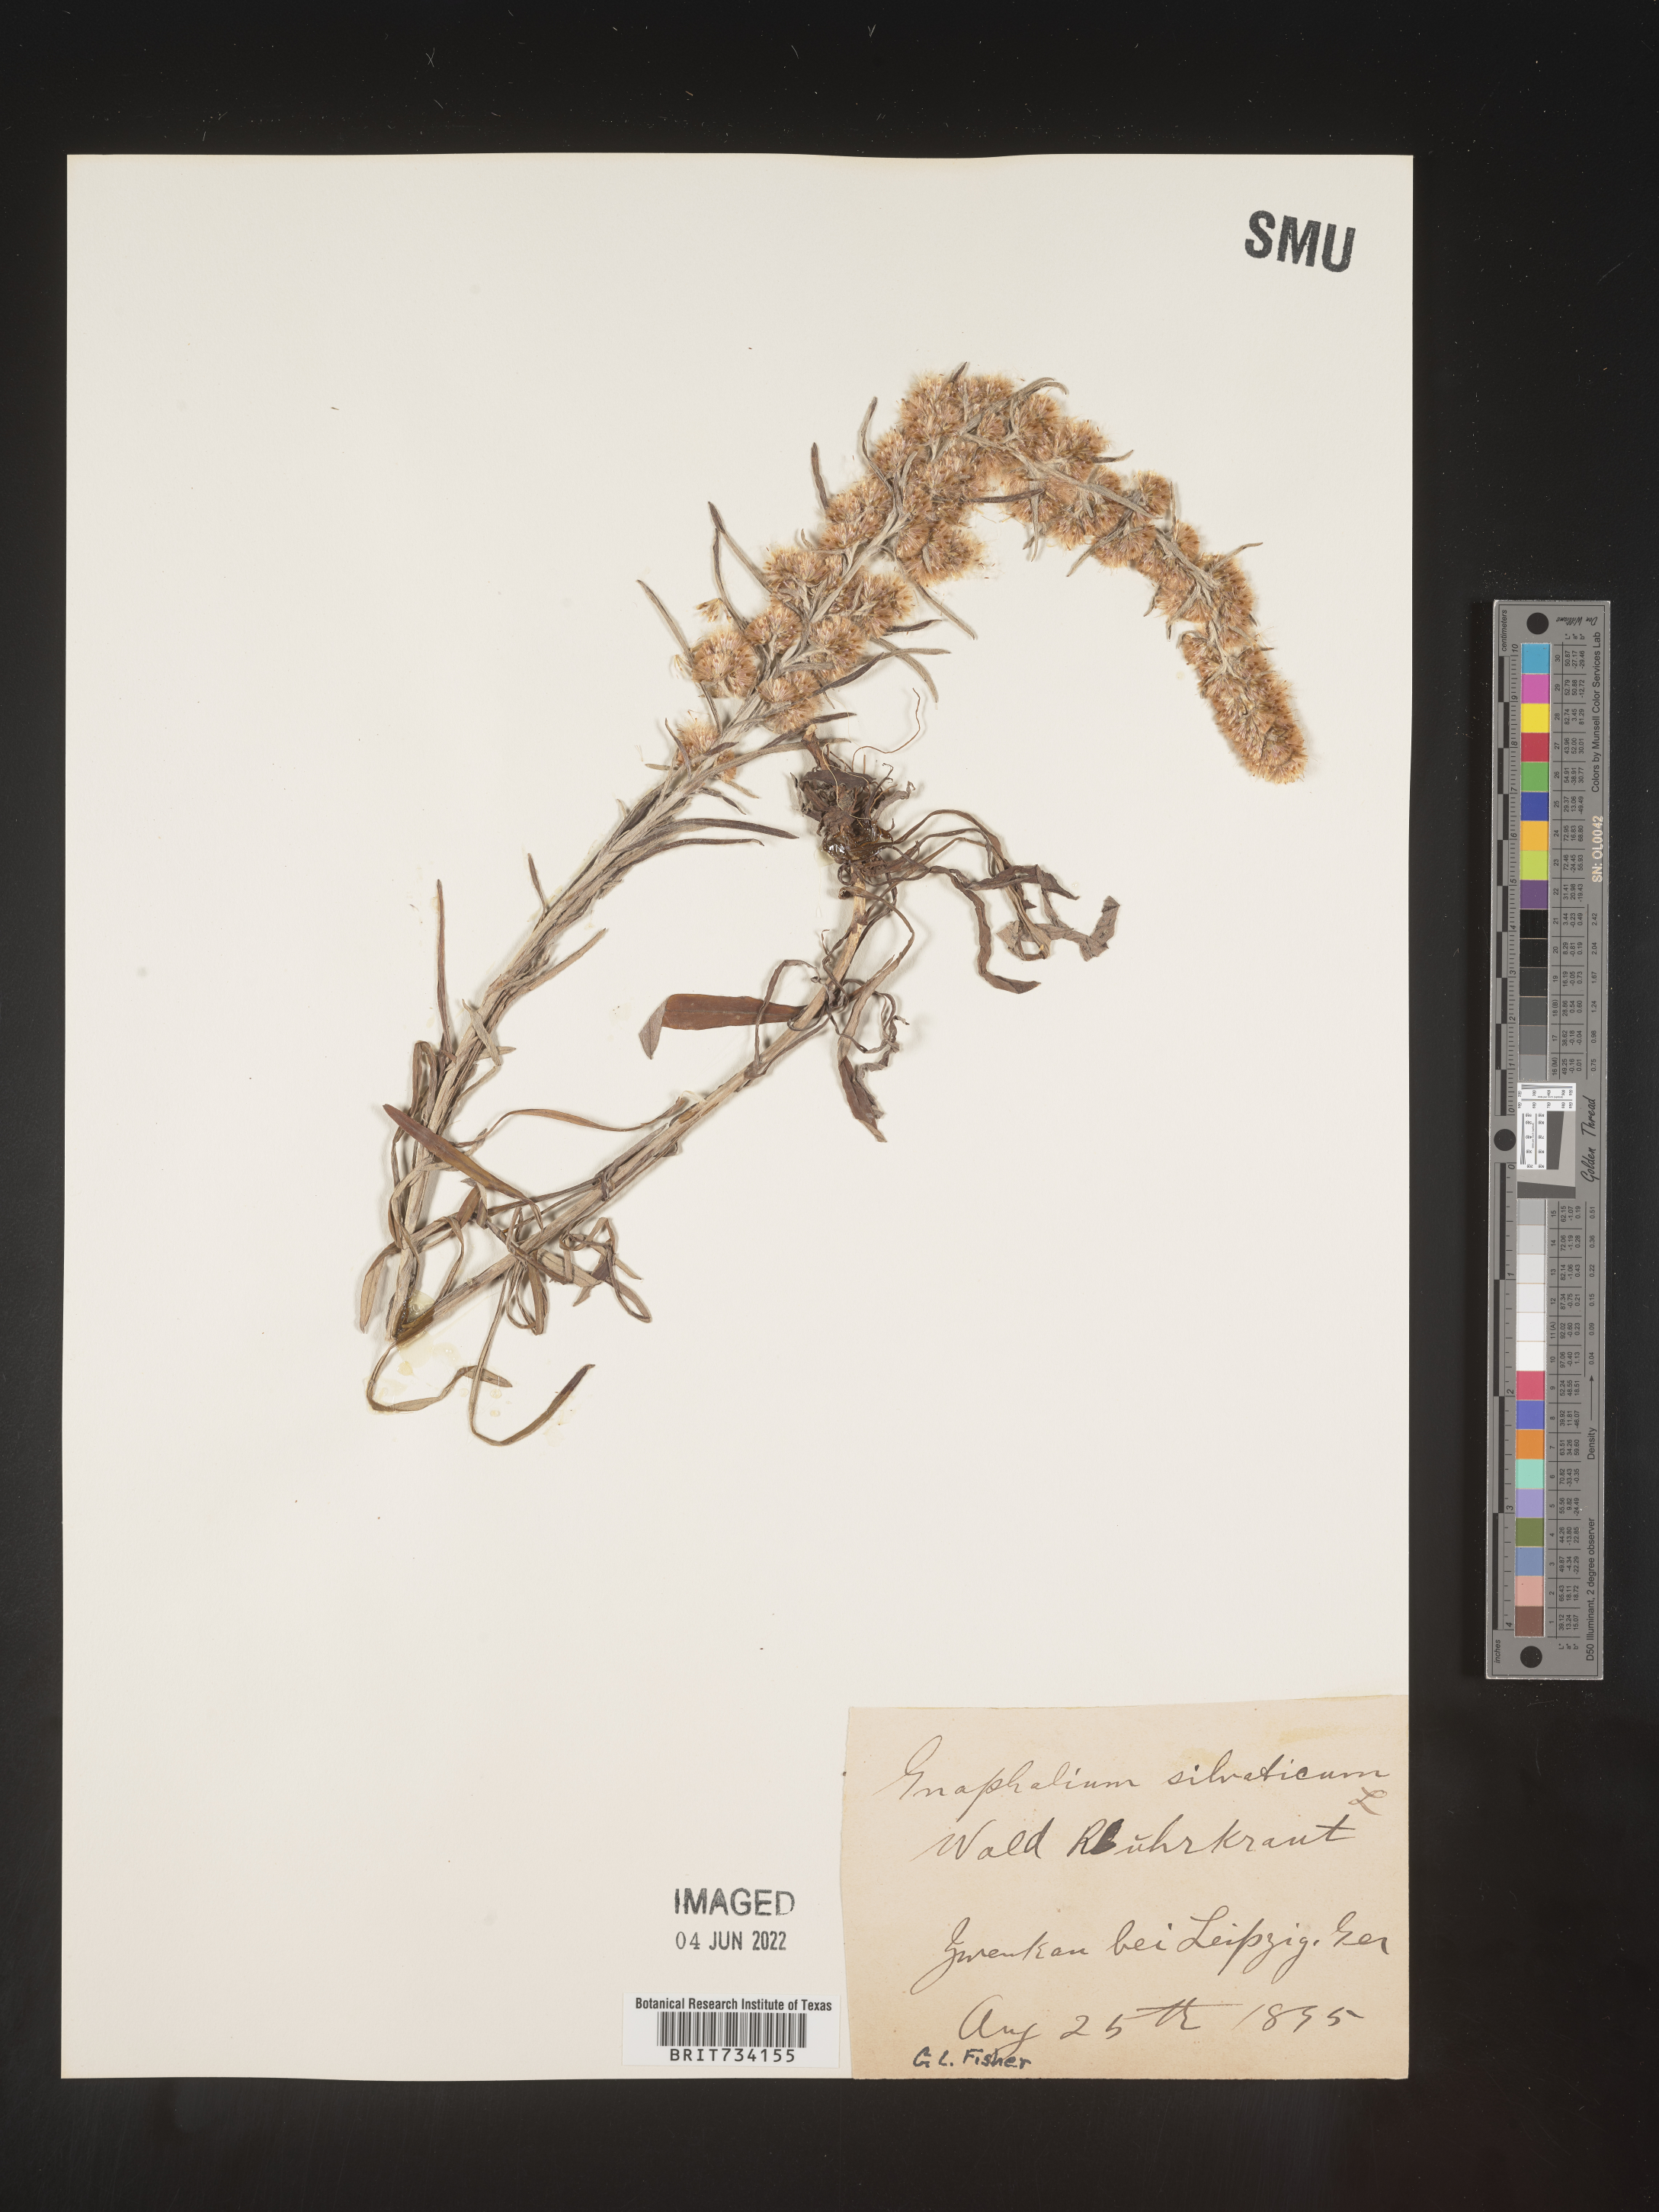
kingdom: Plantae
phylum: Tracheophyta
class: Magnoliopsida
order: Asterales
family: Asteraceae
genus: Omalotheca
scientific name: Omalotheca sylvatica
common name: Heath cudweed
